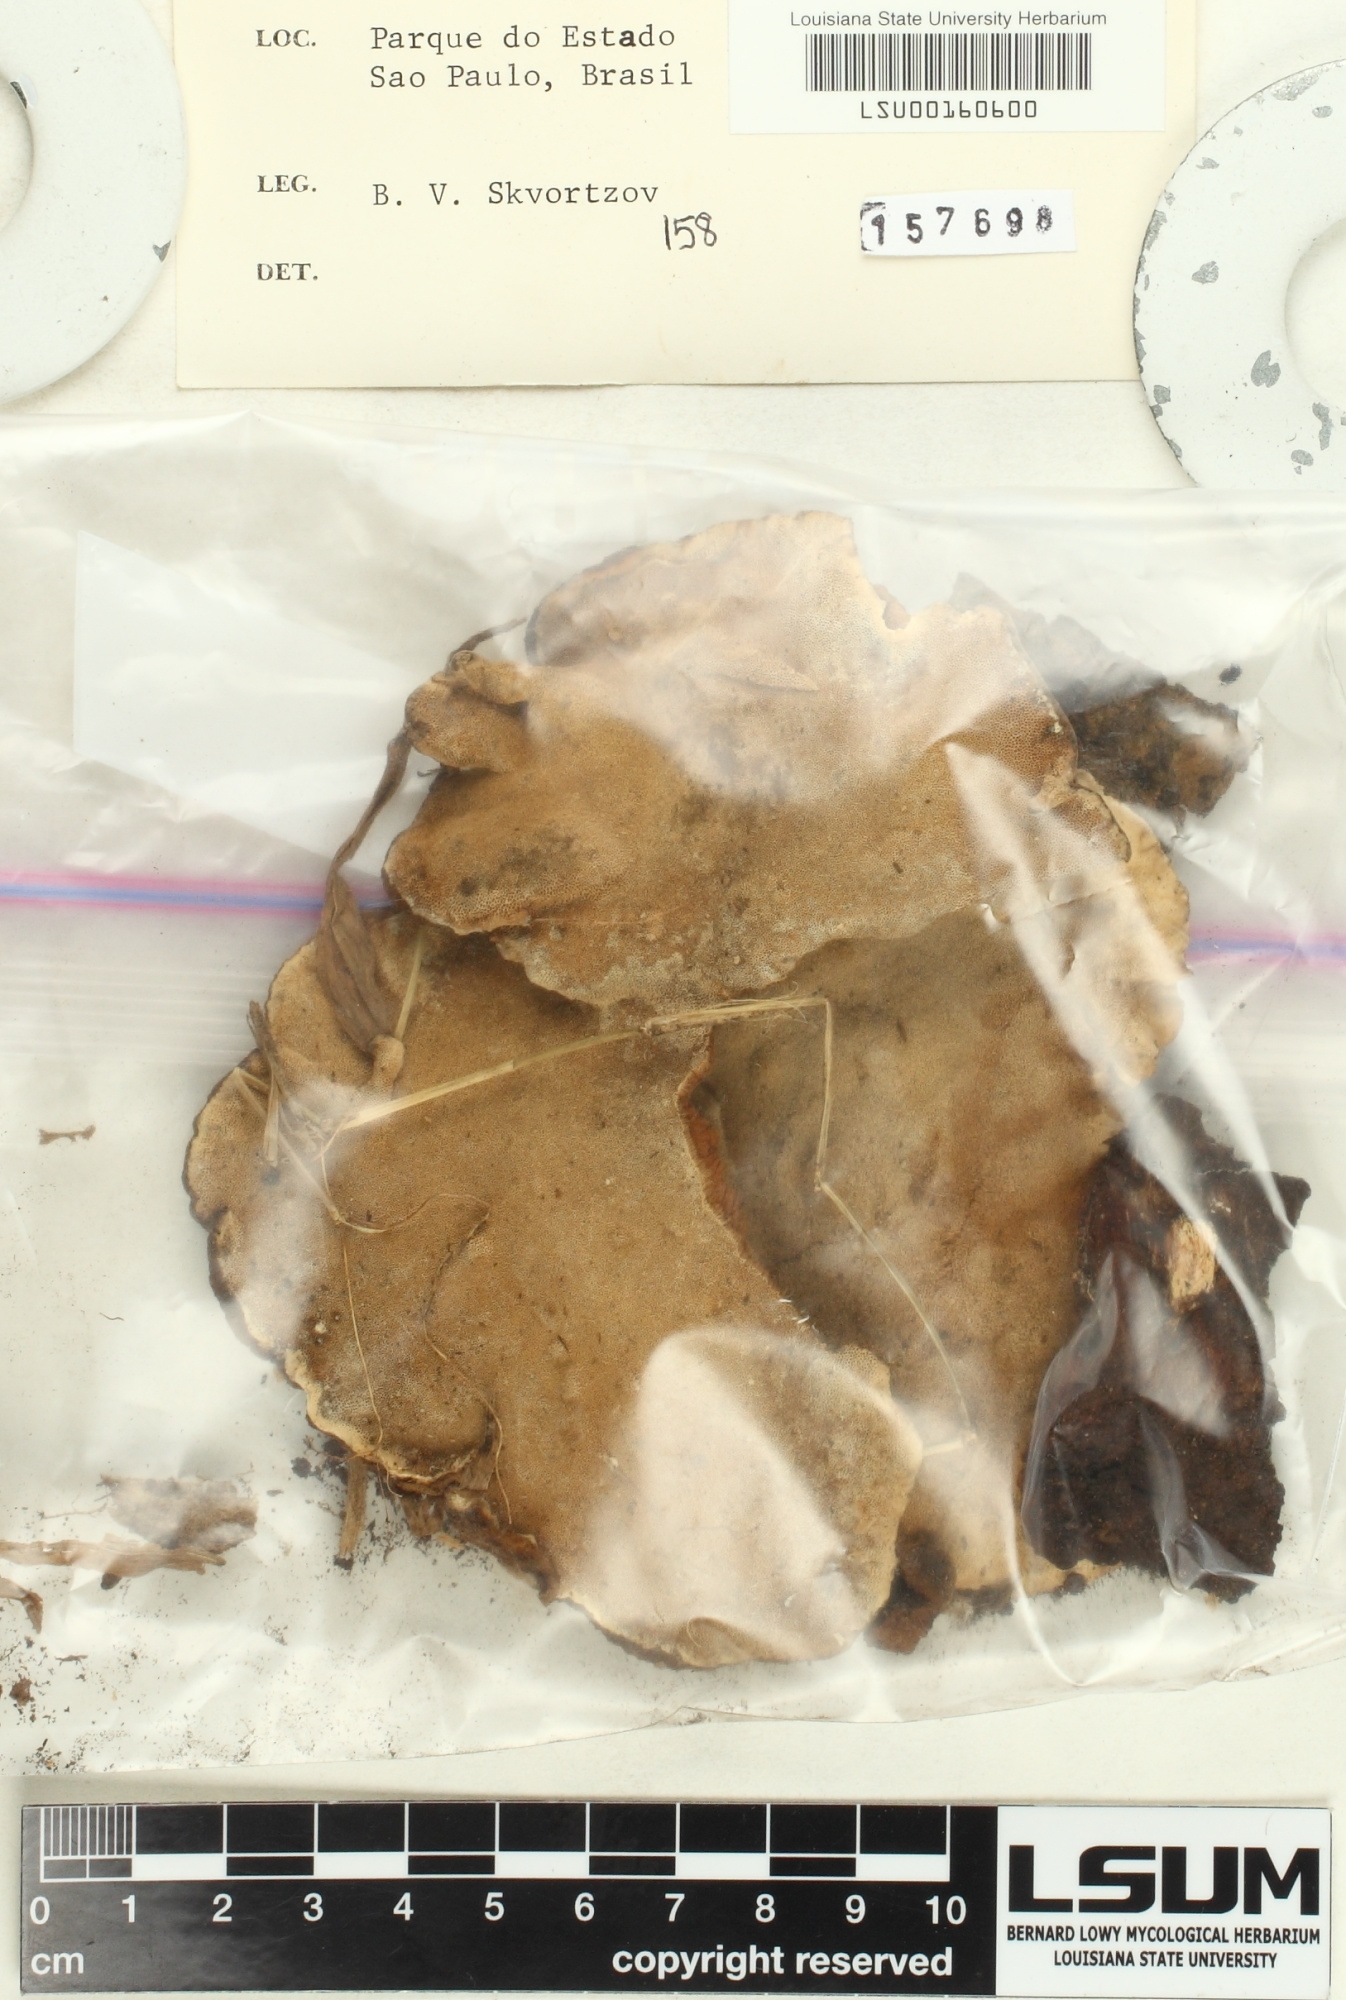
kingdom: Fungi
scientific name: Fungi
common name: Fungi
